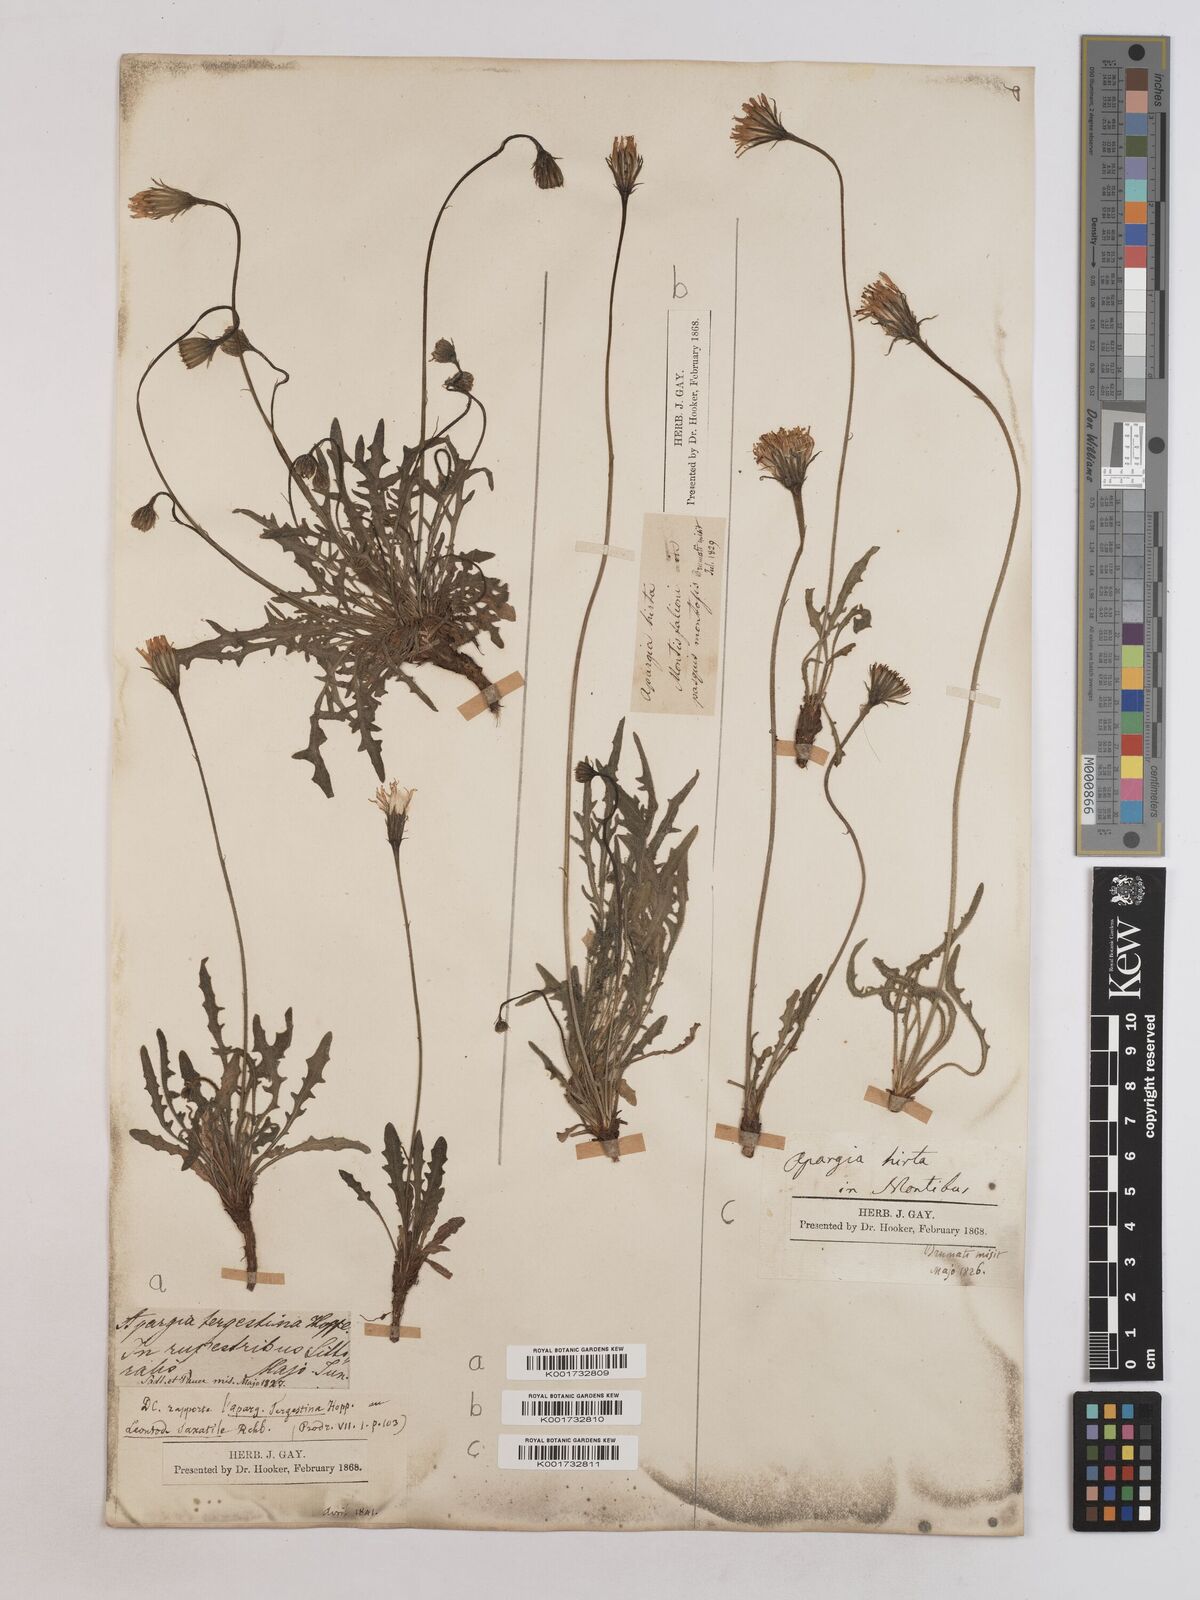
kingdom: Plantae
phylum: Tracheophyta
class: Magnoliopsida
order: Asterales
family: Asteraceae
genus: Leontodon
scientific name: Leontodon crispus
